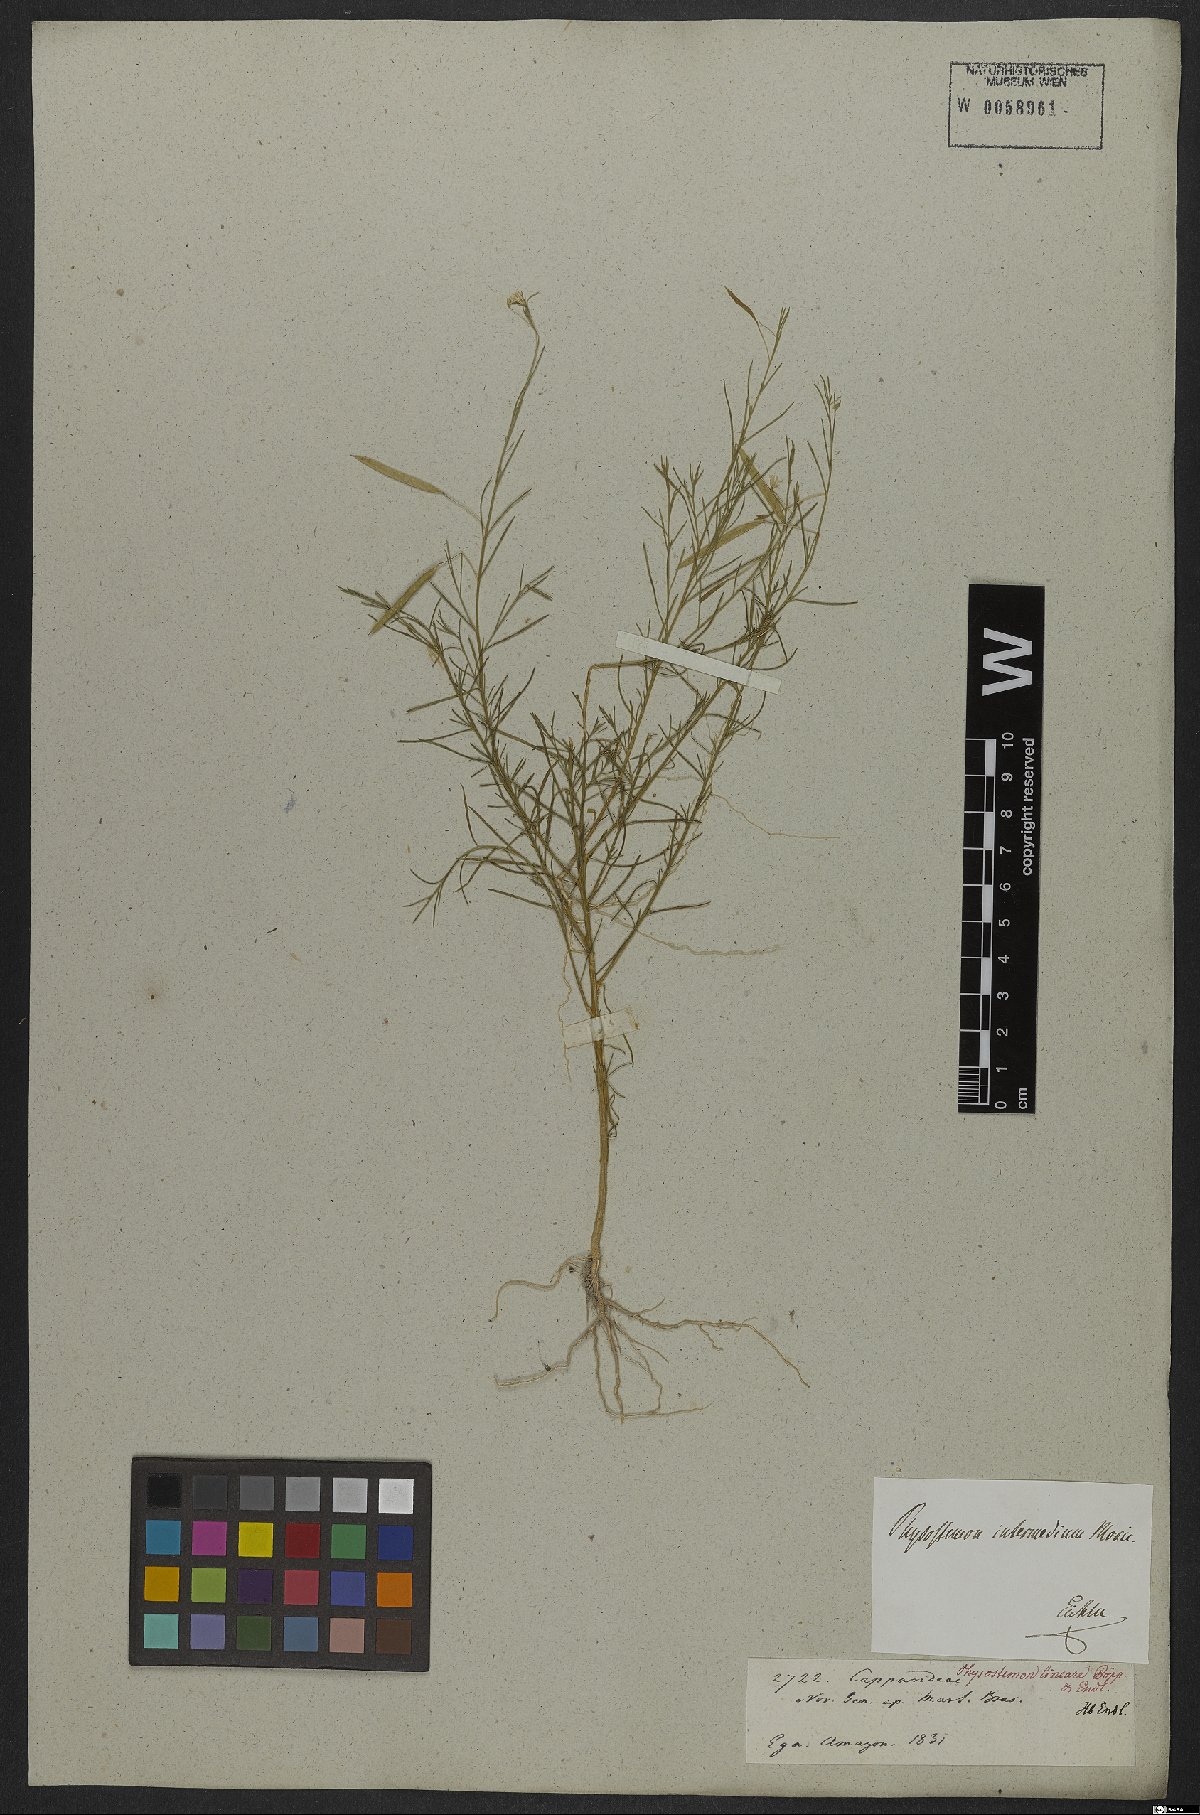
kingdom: Plantae
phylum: Tracheophyta
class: Magnoliopsida
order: Brassicales
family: Cleomaceae
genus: Andinocleome
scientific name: Andinocleome anomala
